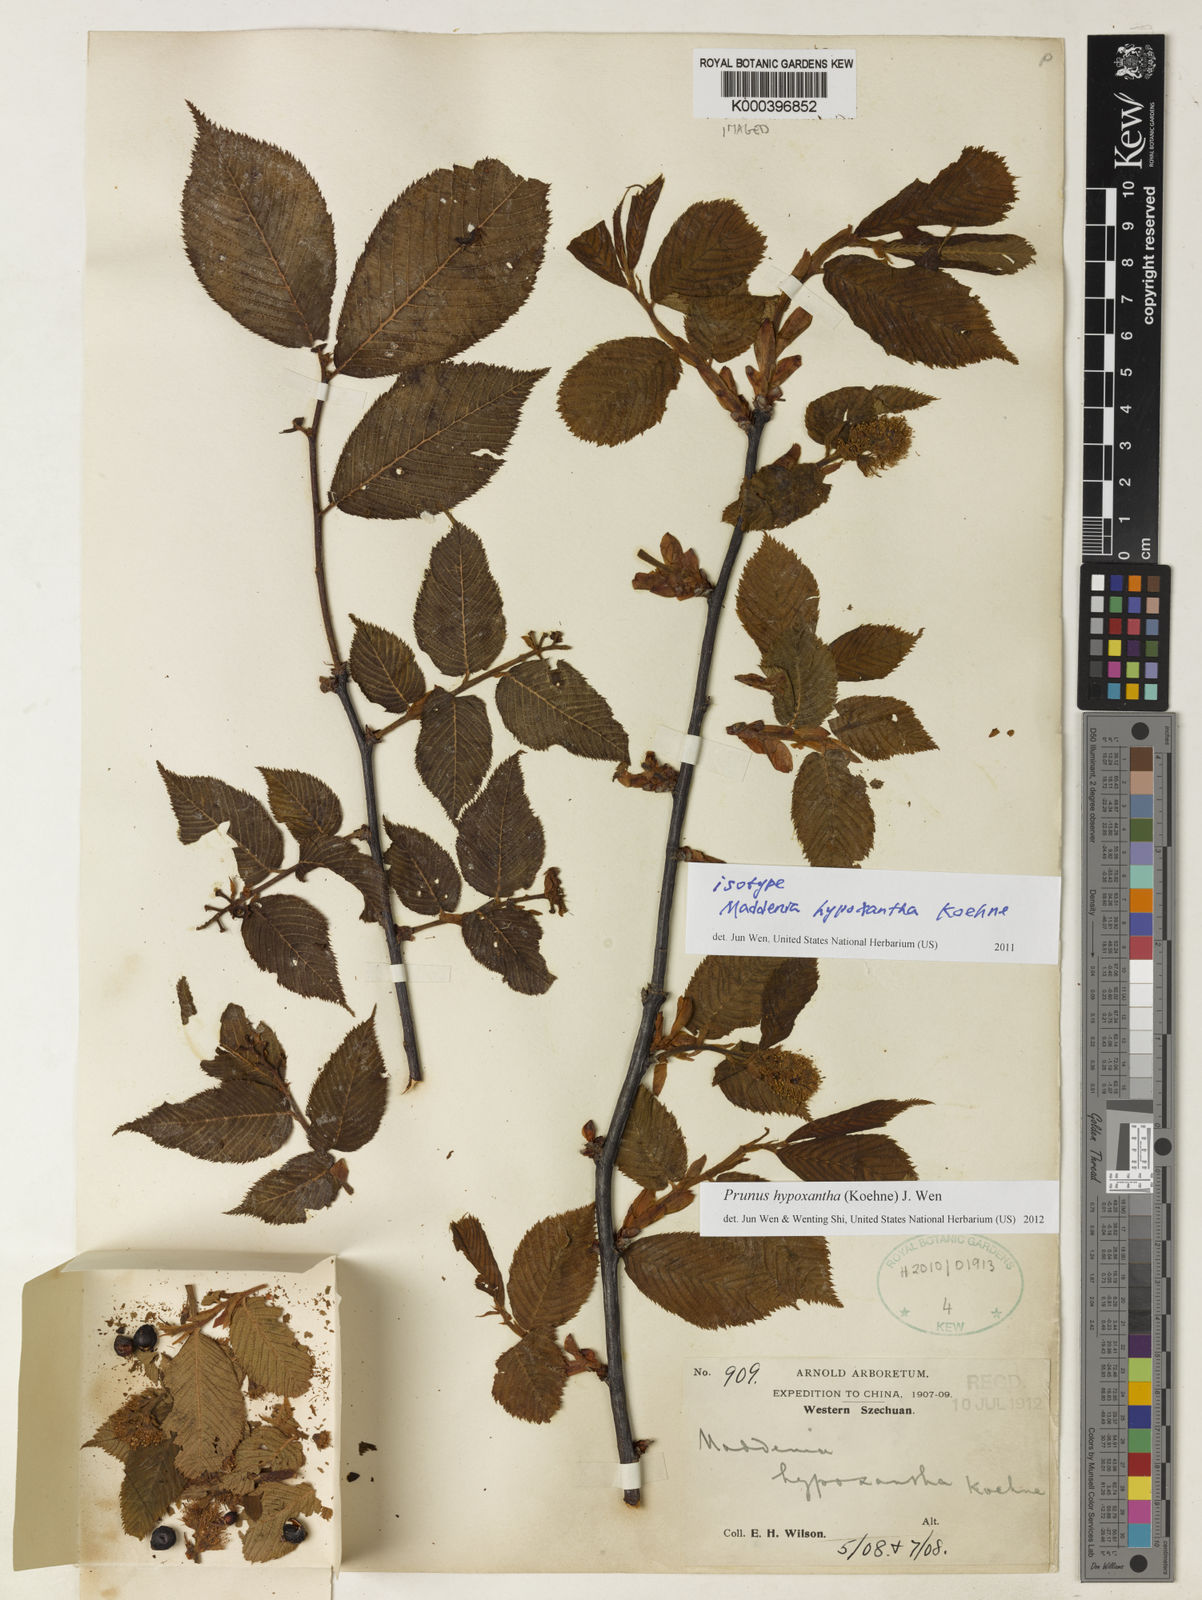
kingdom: Plantae
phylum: Tracheophyta
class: Magnoliopsida
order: Rosales
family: Rosaceae
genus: Prunus
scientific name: Prunus hypoxantha
